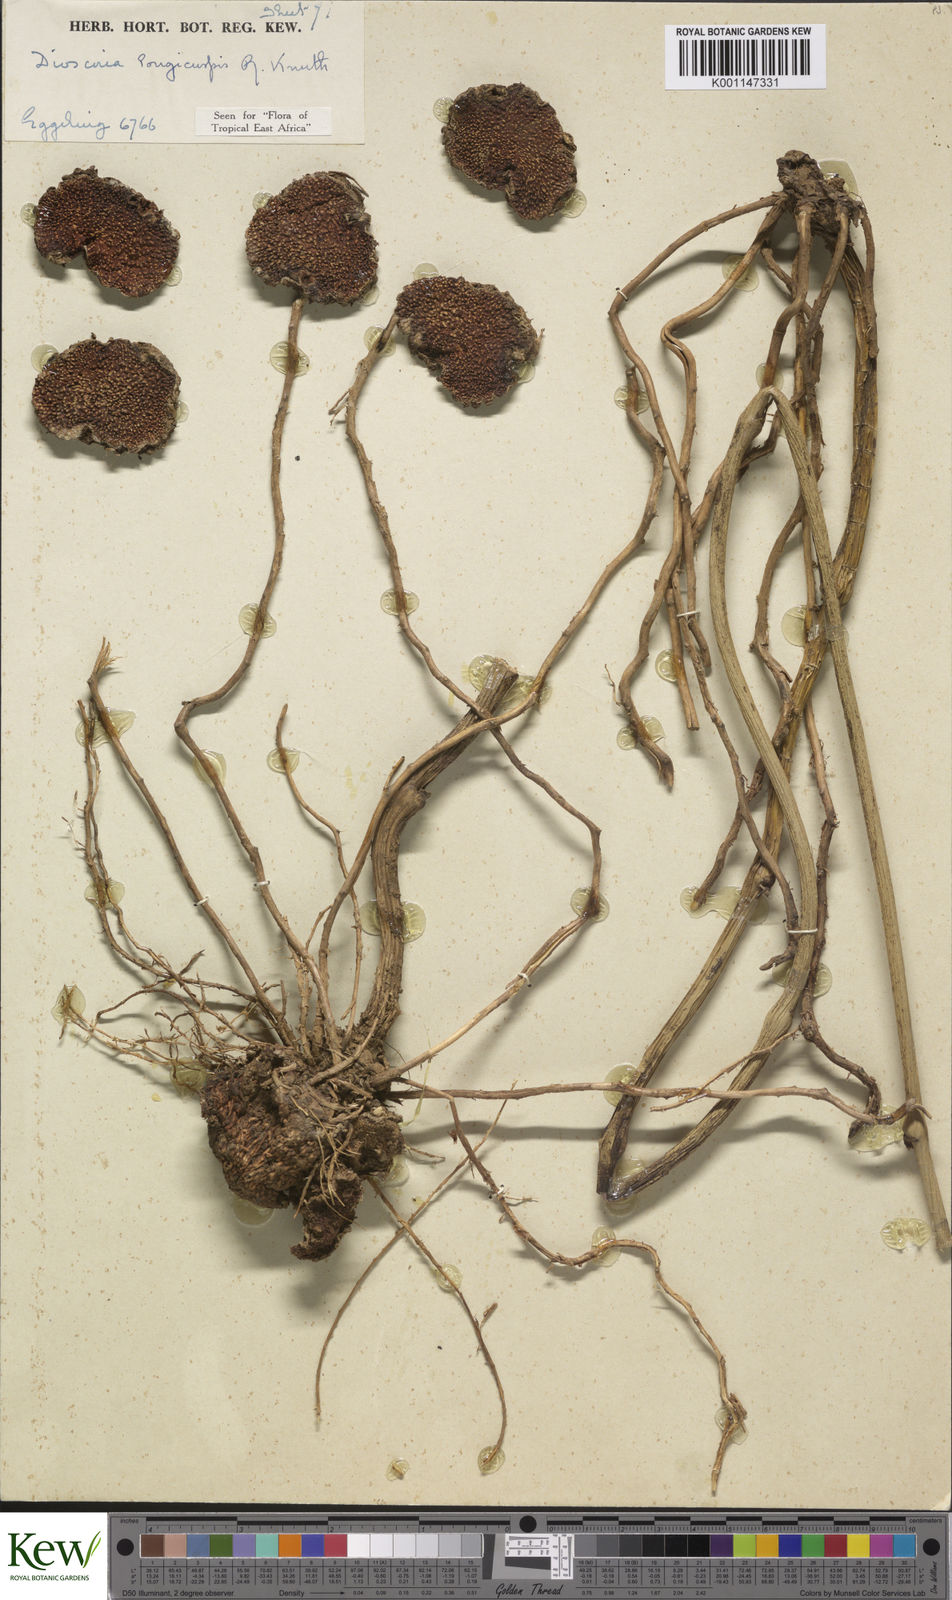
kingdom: Plantae
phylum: Tracheophyta
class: Liliopsida
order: Dioscoreales
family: Dioscoreaceae
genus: Dioscorea
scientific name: Dioscorea longicuspis
